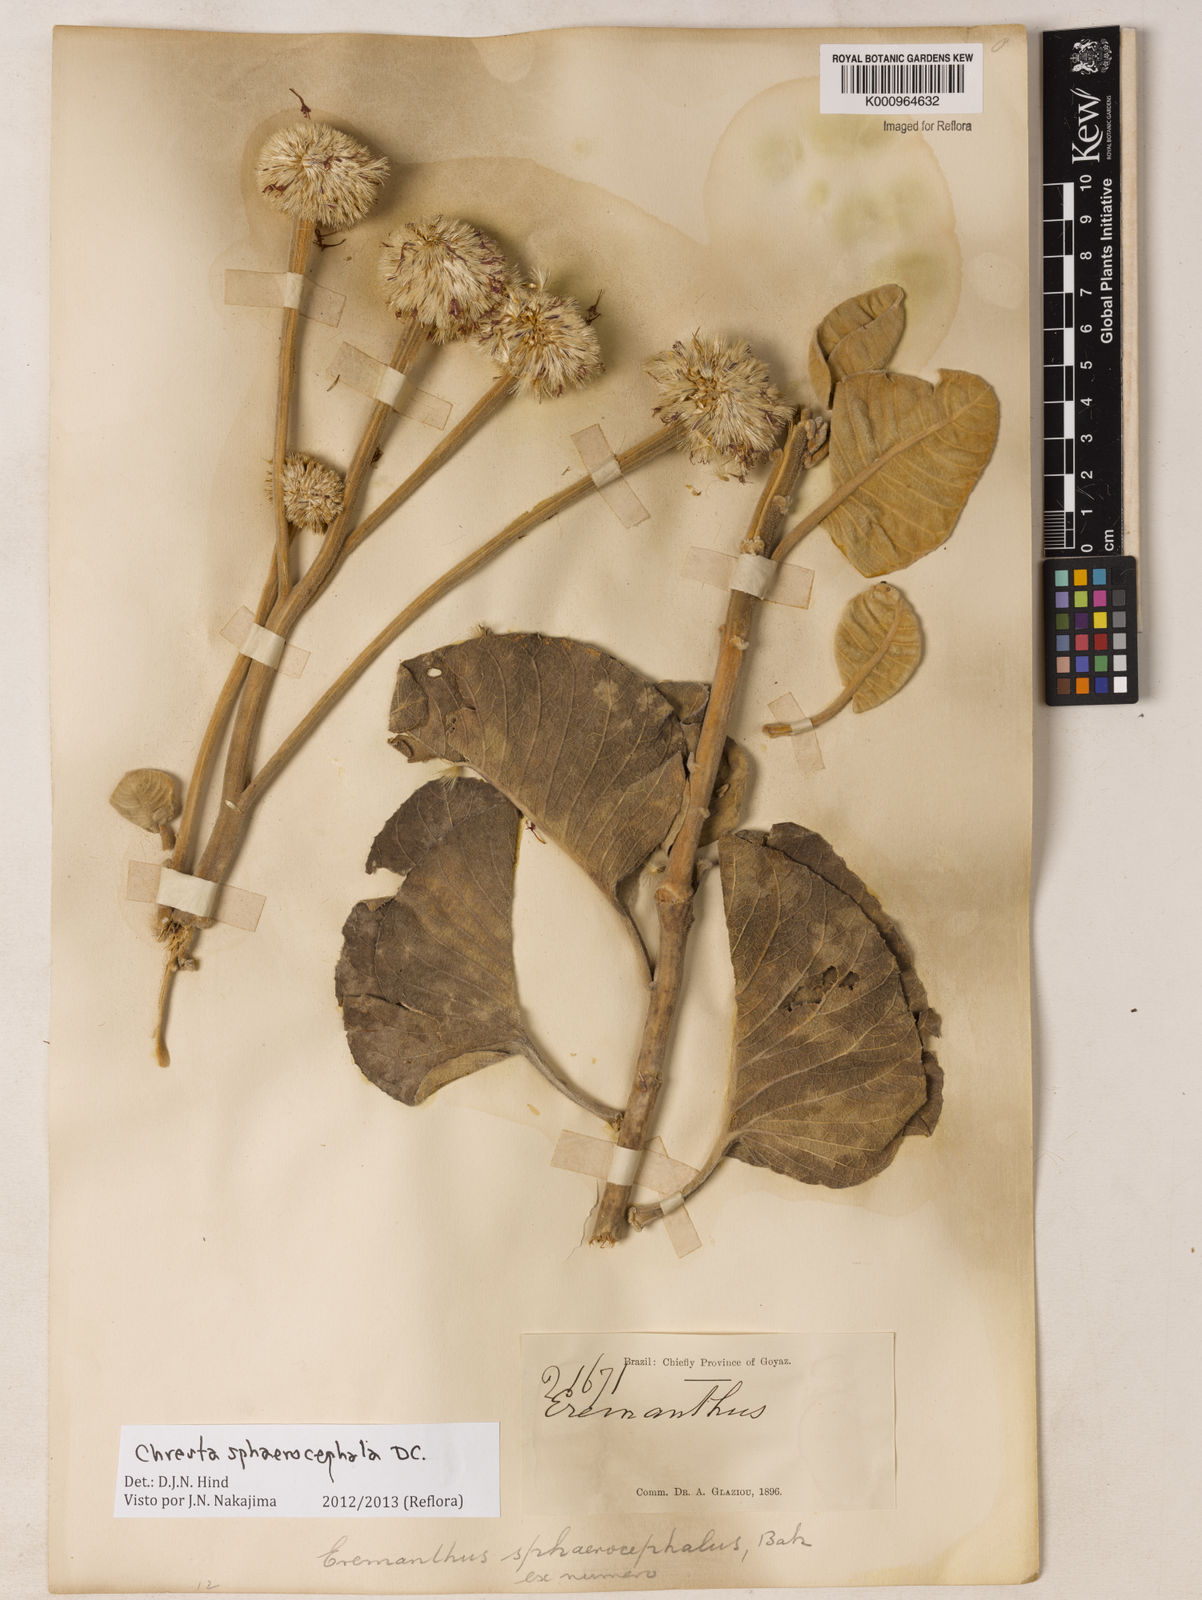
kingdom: Plantae
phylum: Tracheophyta
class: Magnoliopsida
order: Asterales
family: Asteraceae
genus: Chresta
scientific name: Chresta sphaerocephala
